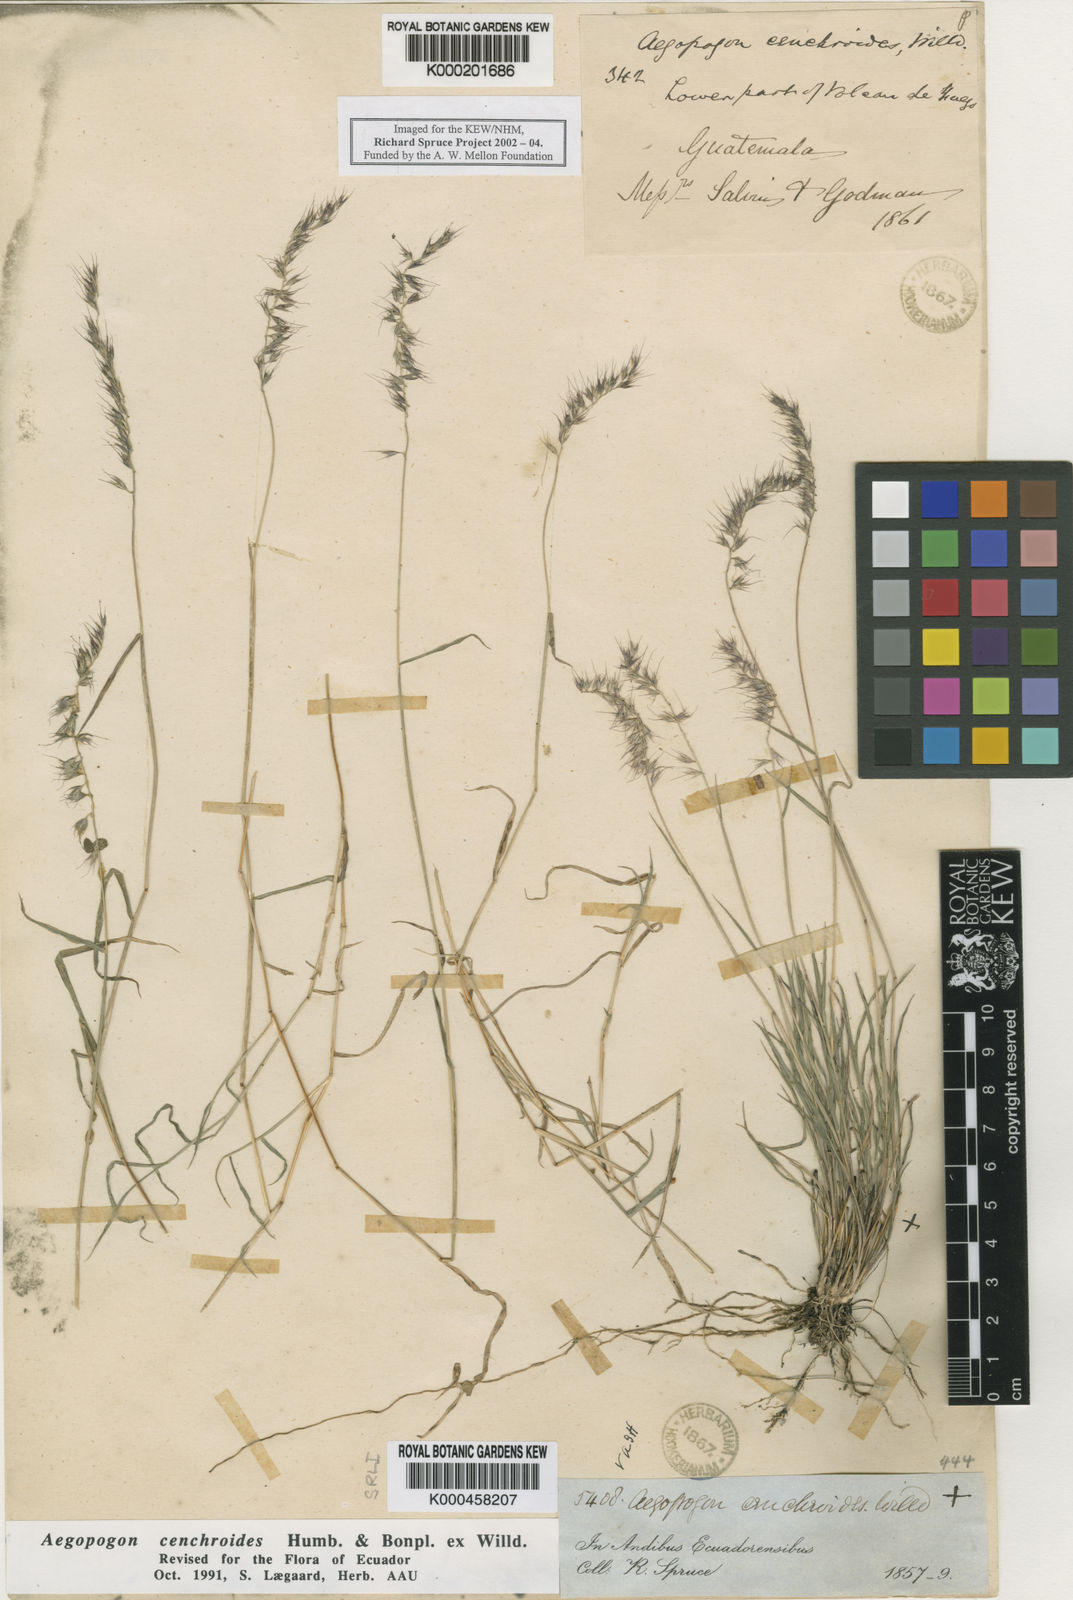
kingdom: Plantae
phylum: Tracheophyta
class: Liliopsida
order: Poales
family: Poaceae
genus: Muhlenbergia
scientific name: Muhlenbergia cenchroides
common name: Relaxgrass
